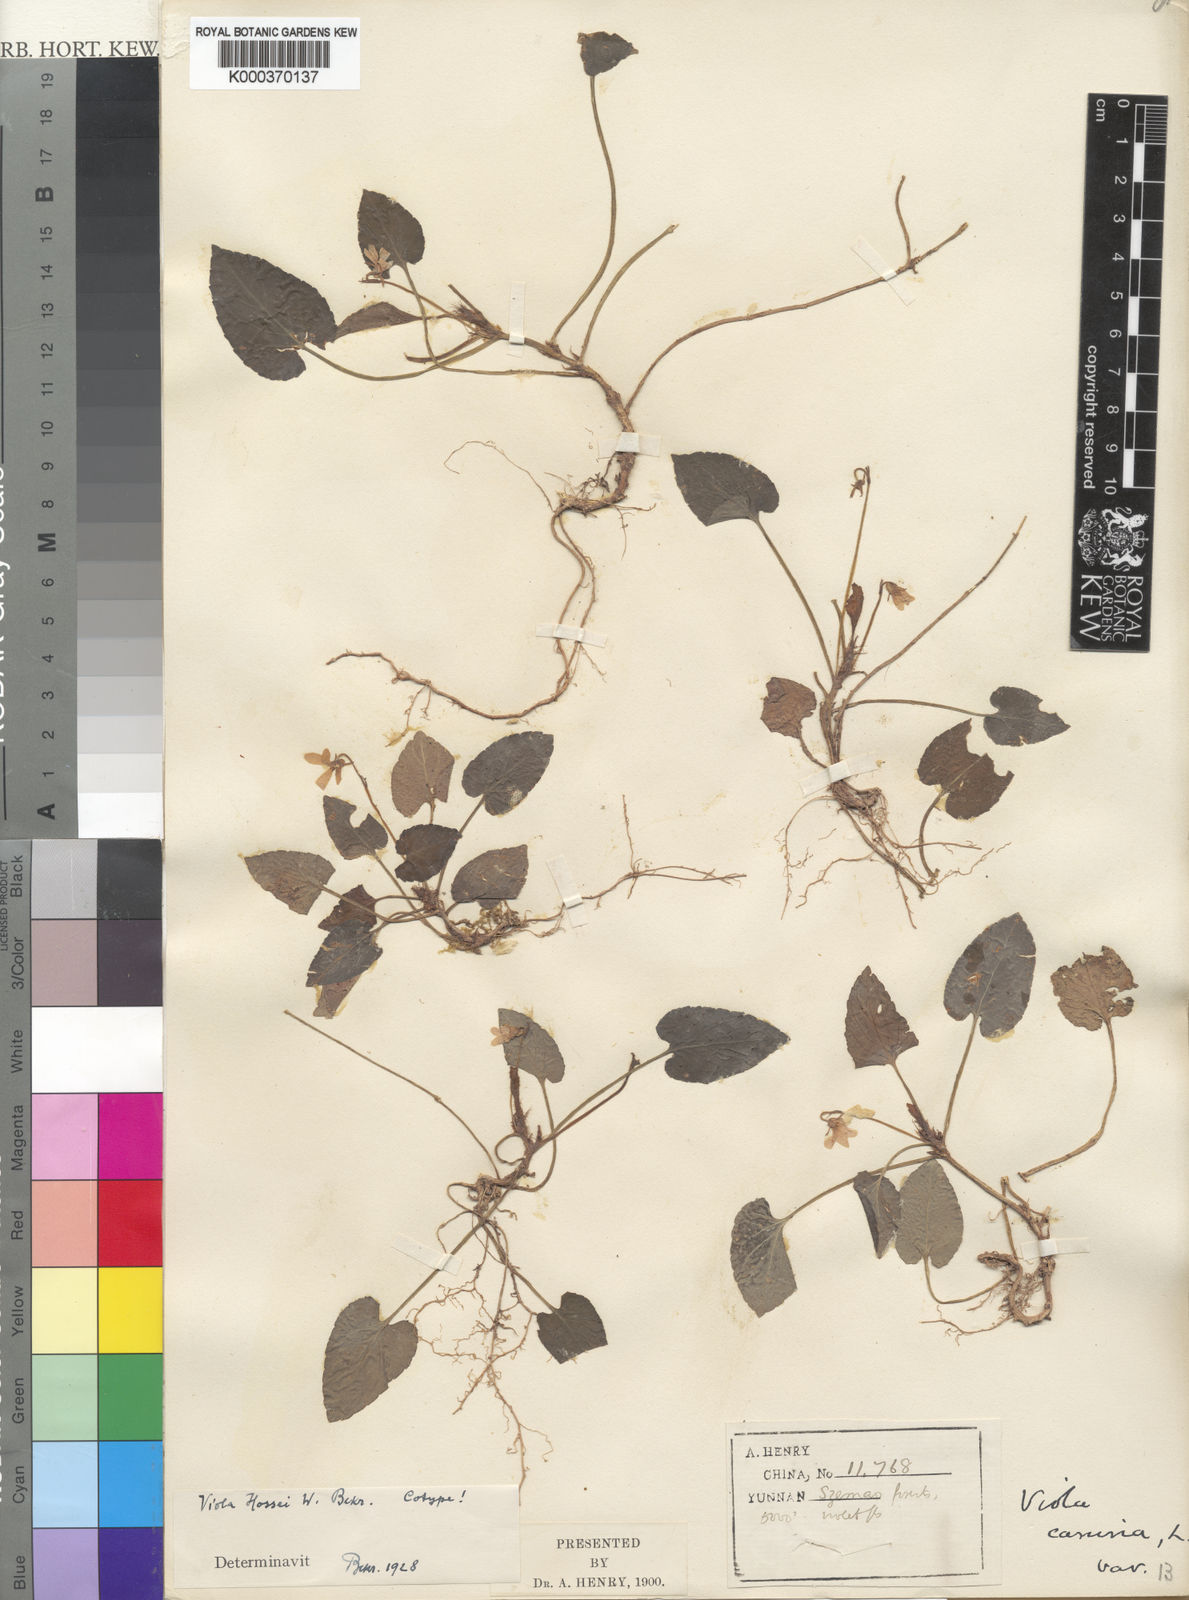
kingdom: Plantae
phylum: Tracheophyta
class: Magnoliopsida
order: Malpighiales
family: Violaceae
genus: Viola
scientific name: Viola hossei
